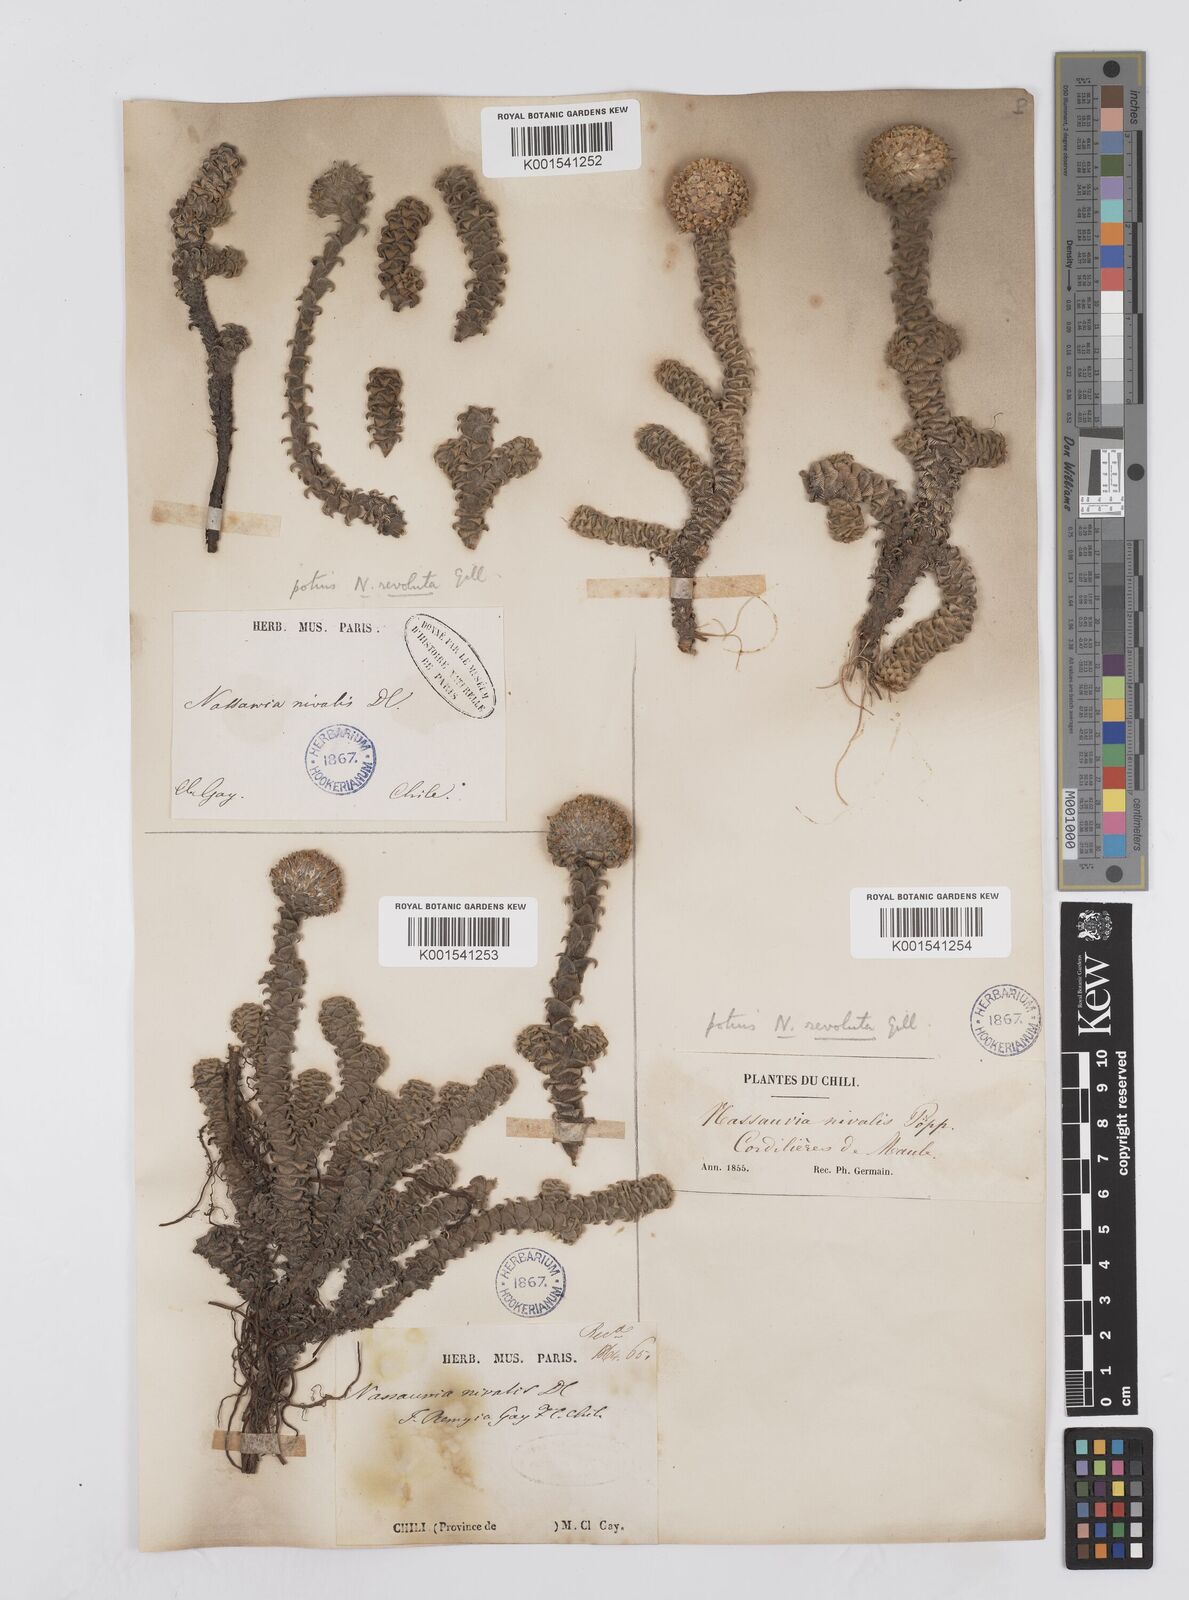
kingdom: Plantae
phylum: Tracheophyta
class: Magnoliopsida
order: Asterales
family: Asteraceae
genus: Nassauvia
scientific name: Nassauvia revoluta
